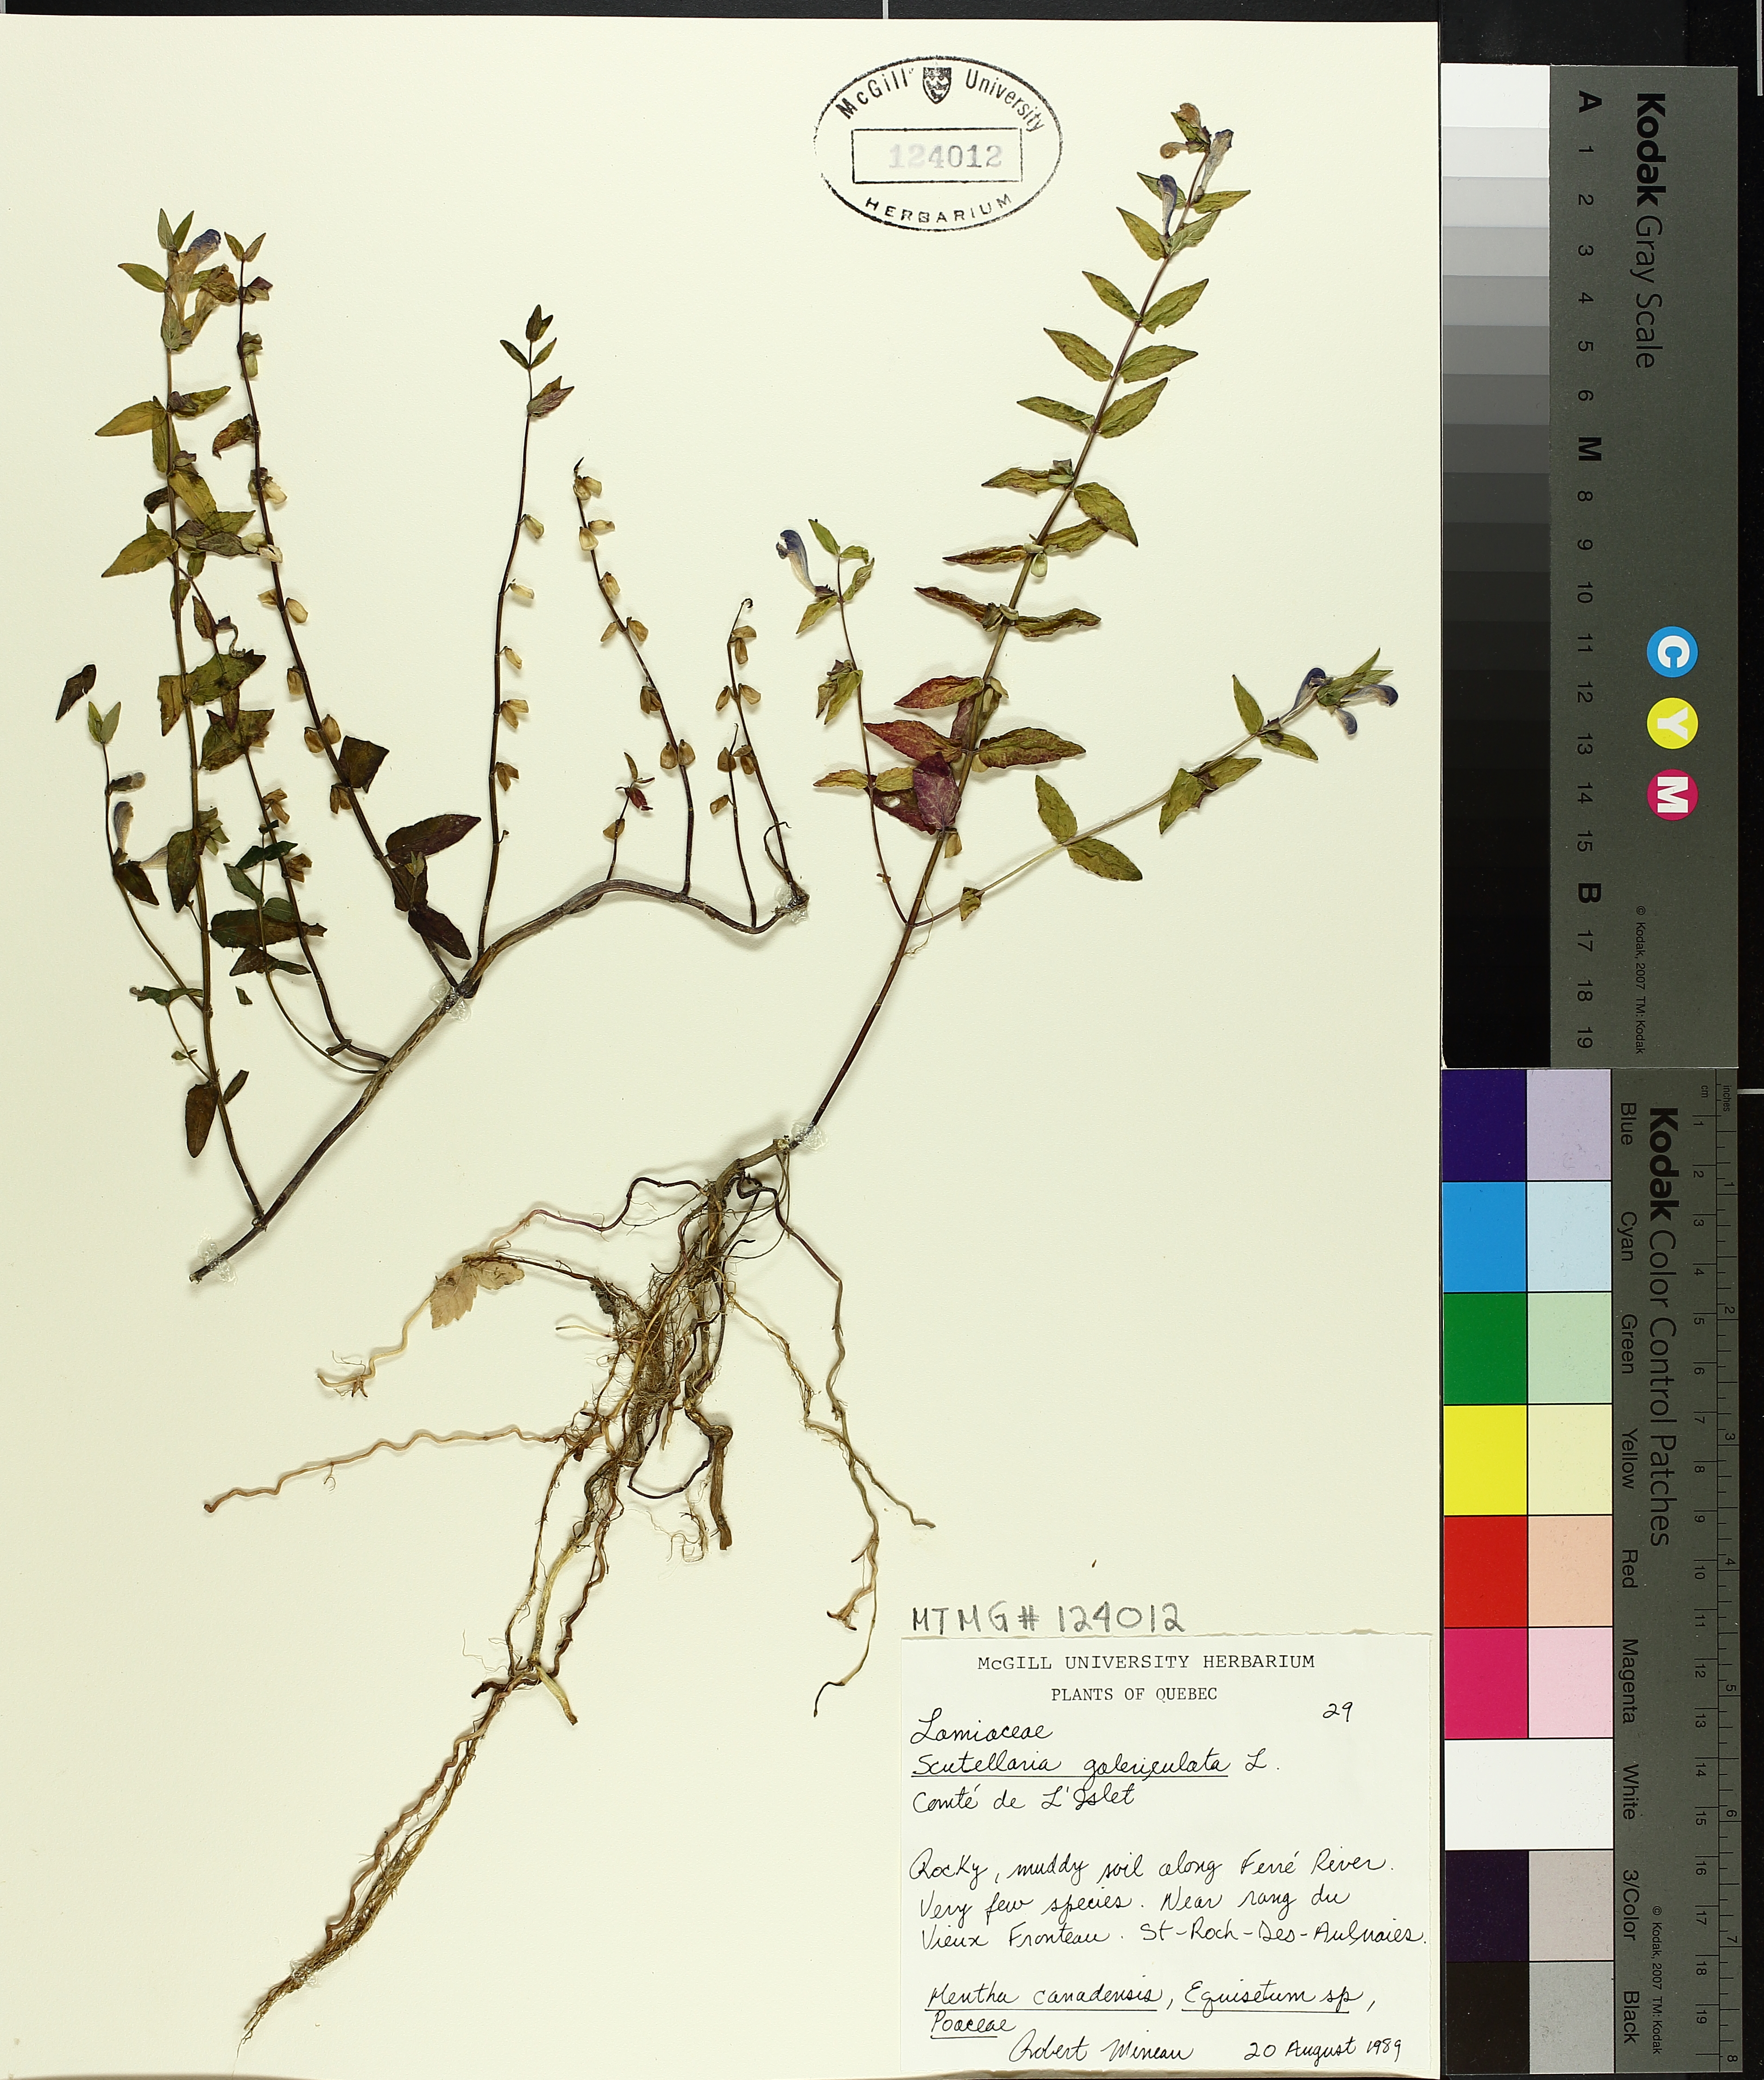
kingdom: Plantae
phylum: Tracheophyta
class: Magnoliopsida
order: Lamiales
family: Lamiaceae
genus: Scutellaria
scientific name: Scutellaria galericulata
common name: Skullcap
